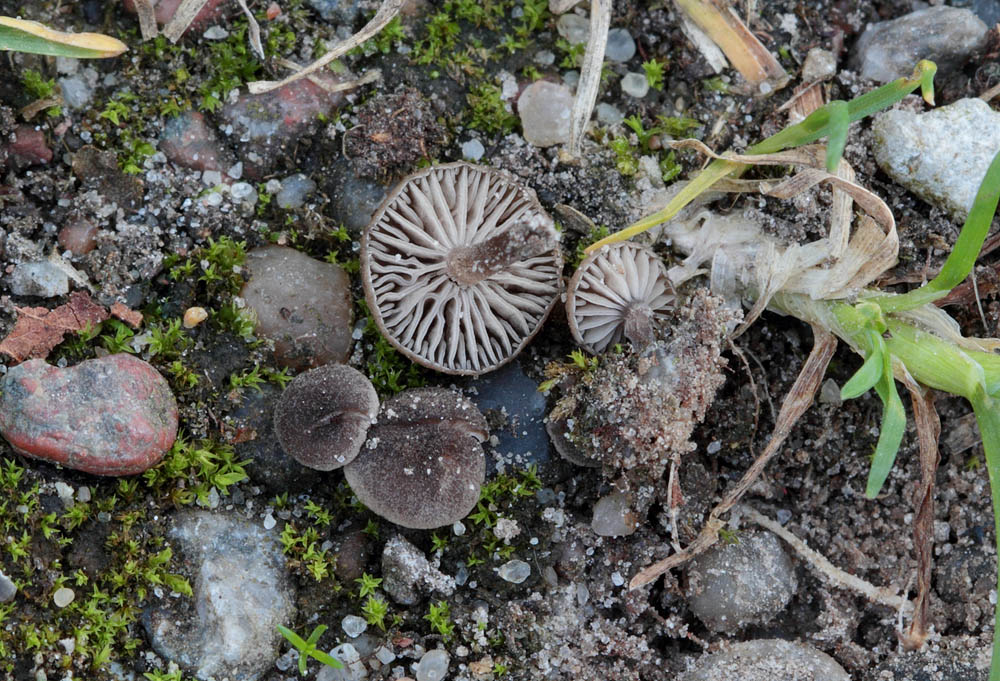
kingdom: Fungi
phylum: Basidiomycota
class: Agaricomycetes
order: Agaricales
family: Entolomataceae
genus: Entoloma
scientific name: Entoloma phaeocyathum
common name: klit-rødblad
